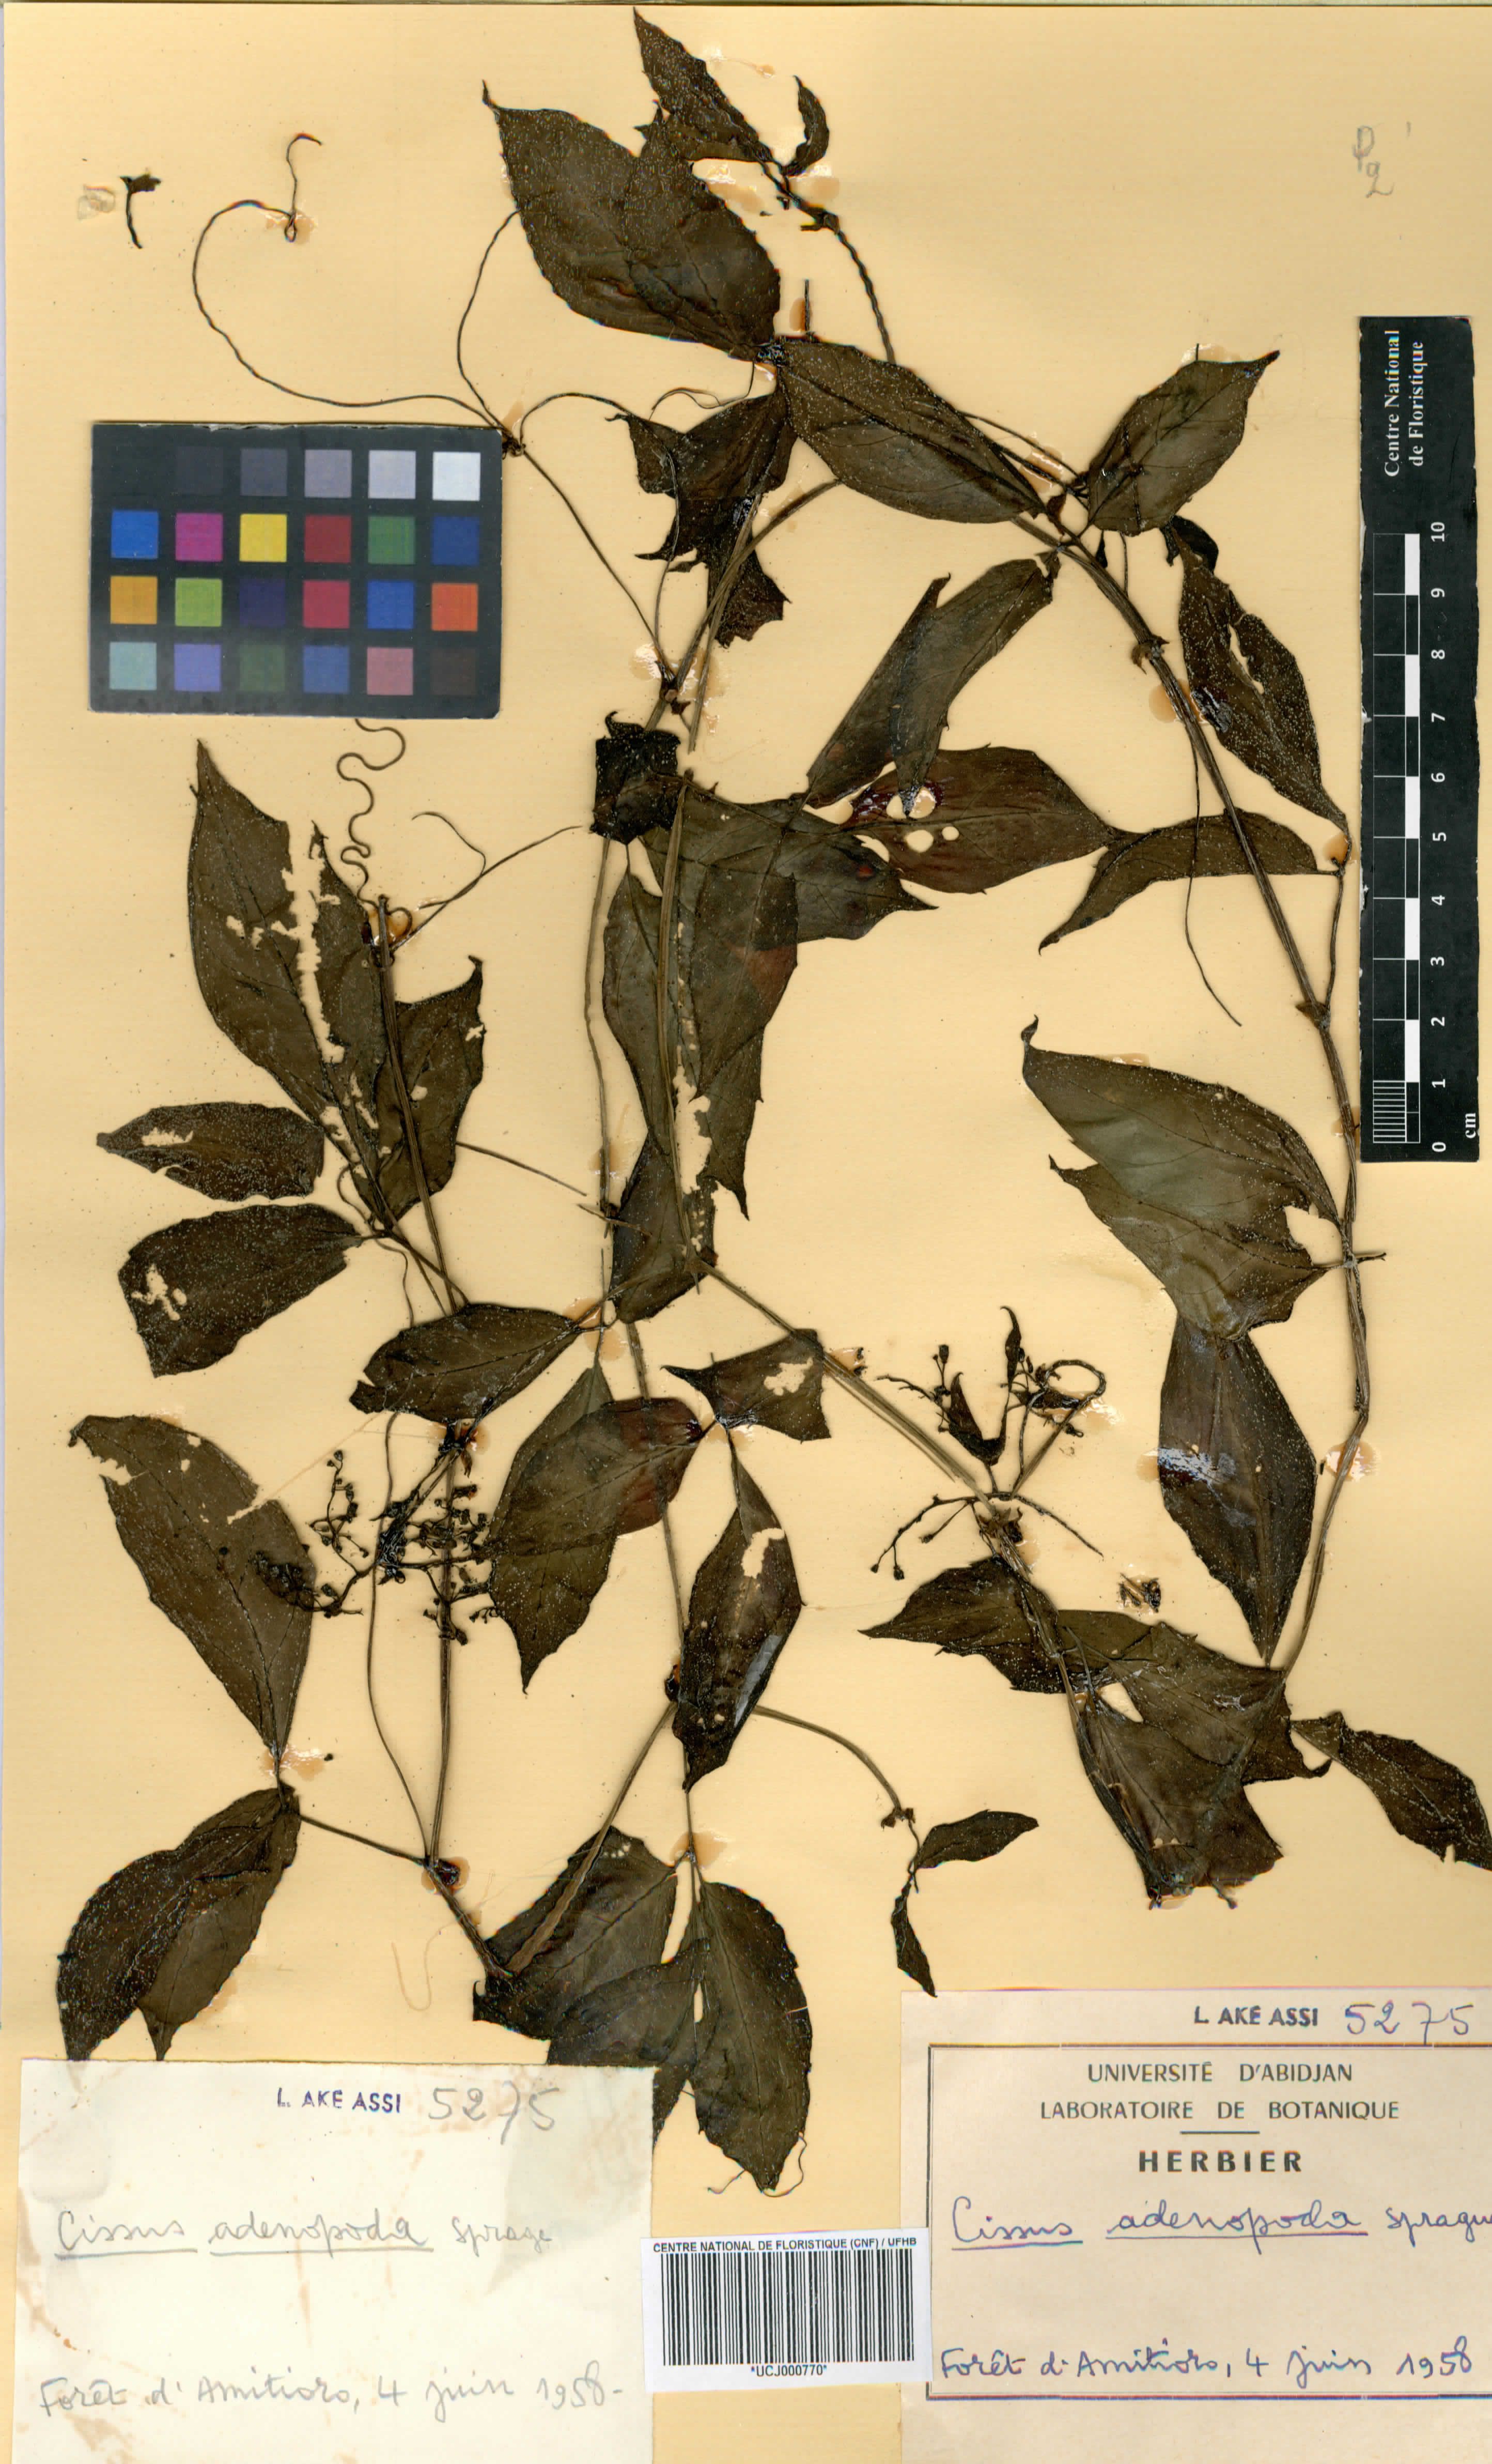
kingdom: Plantae
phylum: Tracheophyta
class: Magnoliopsida
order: Vitales
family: Vitaceae
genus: Cyphostemma
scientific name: Cyphostemma adenopodum
